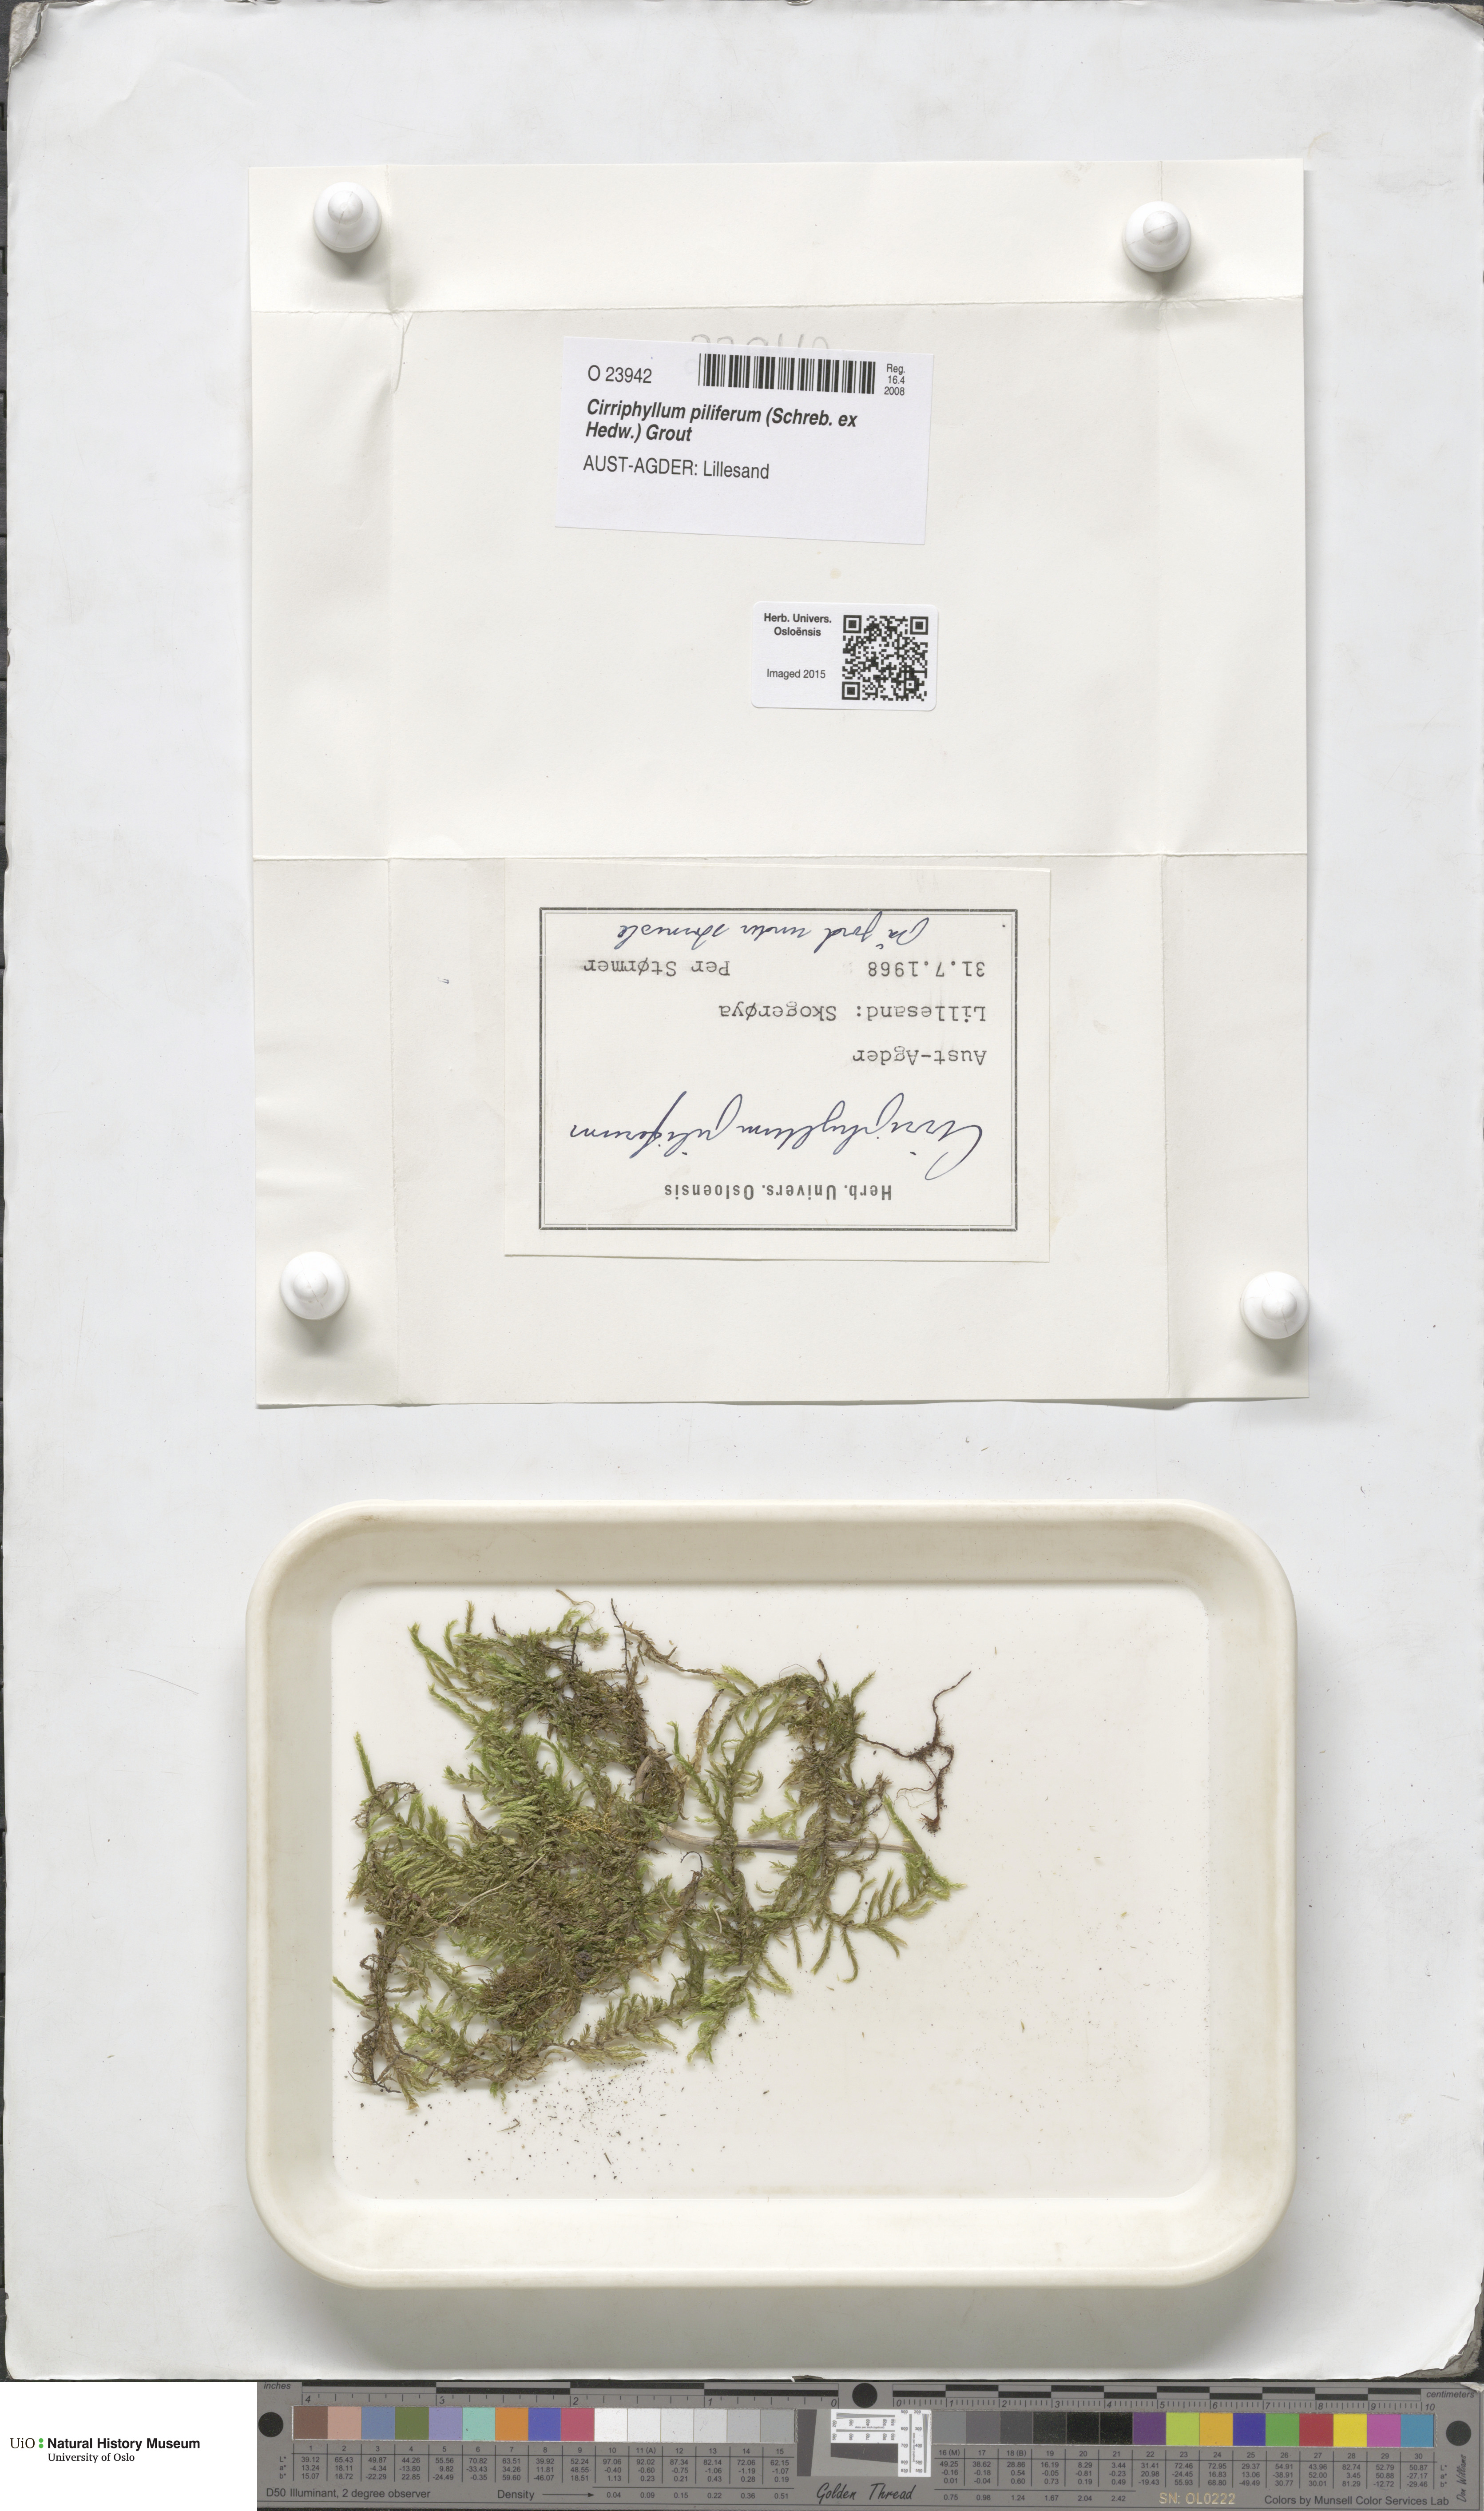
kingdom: Plantae
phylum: Bryophyta
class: Bryopsida
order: Hypnales
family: Brachytheciaceae
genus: Cirriphyllum
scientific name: Cirriphyllum piliferum
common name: Hair-pointed moss
